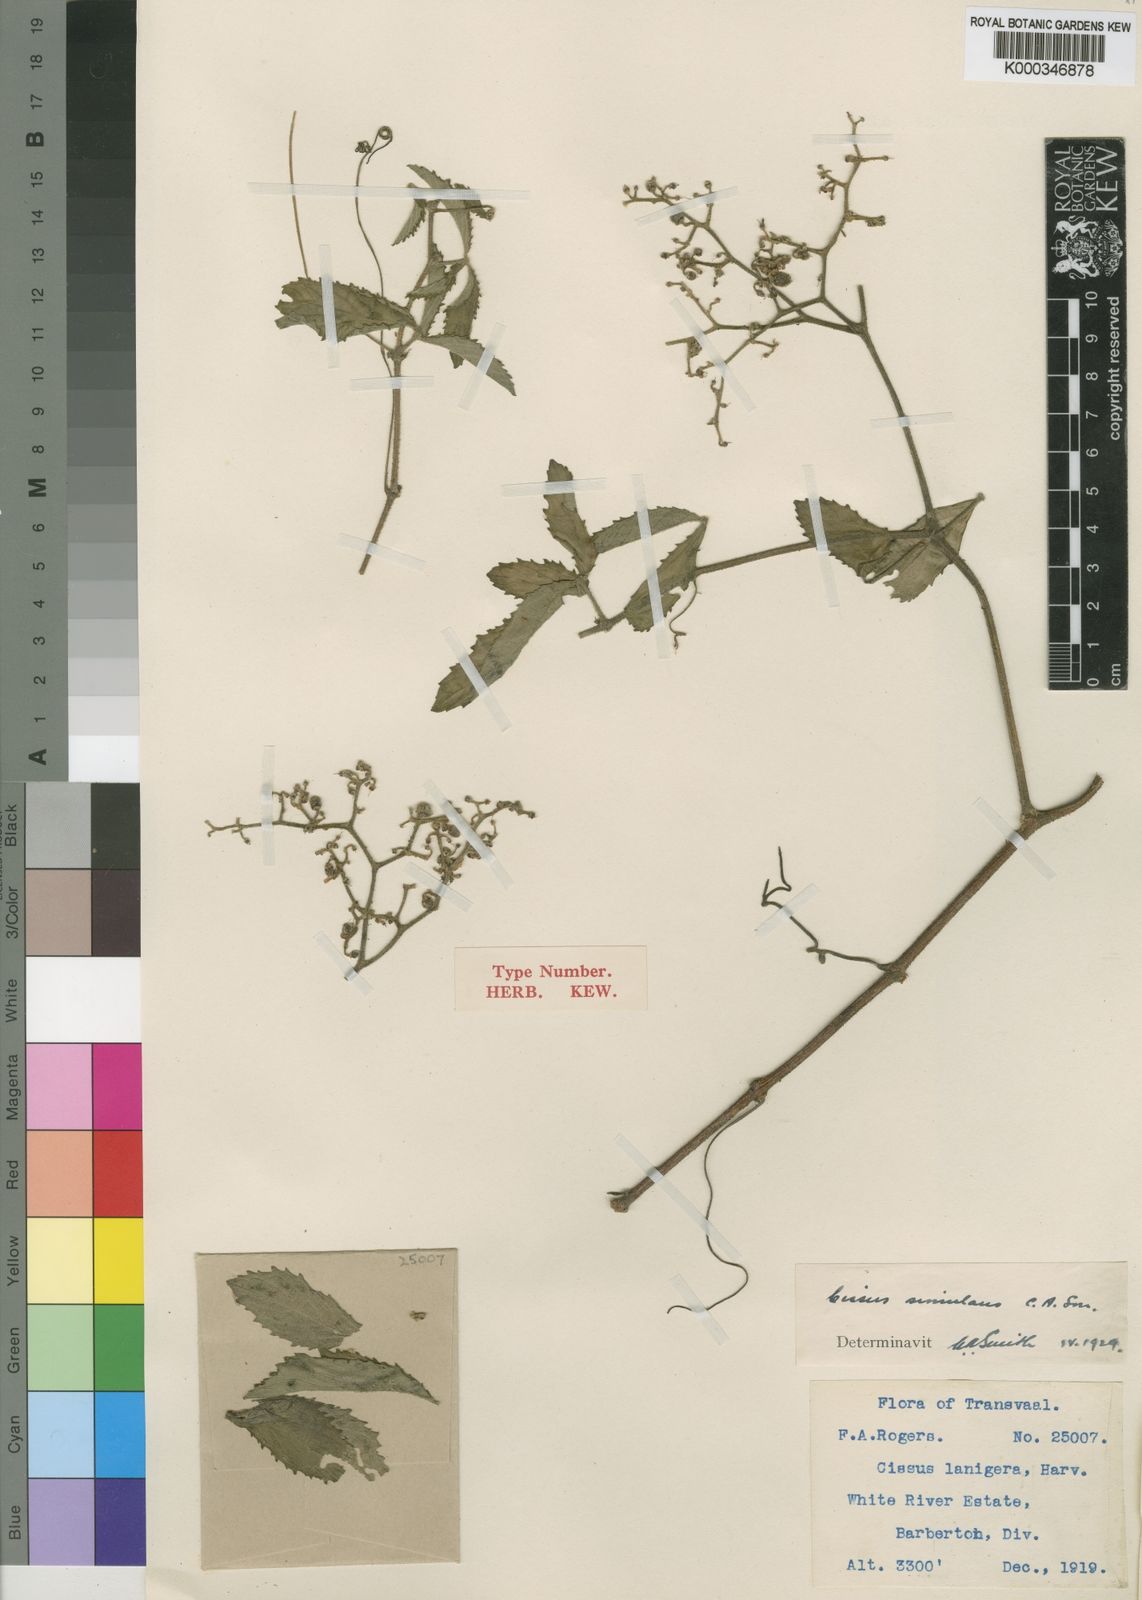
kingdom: Plantae
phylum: Tracheophyta
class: Magnoliopsida
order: Vitales
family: Vitaceae
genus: Cyphostemma
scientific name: Cyphostemma simulans
